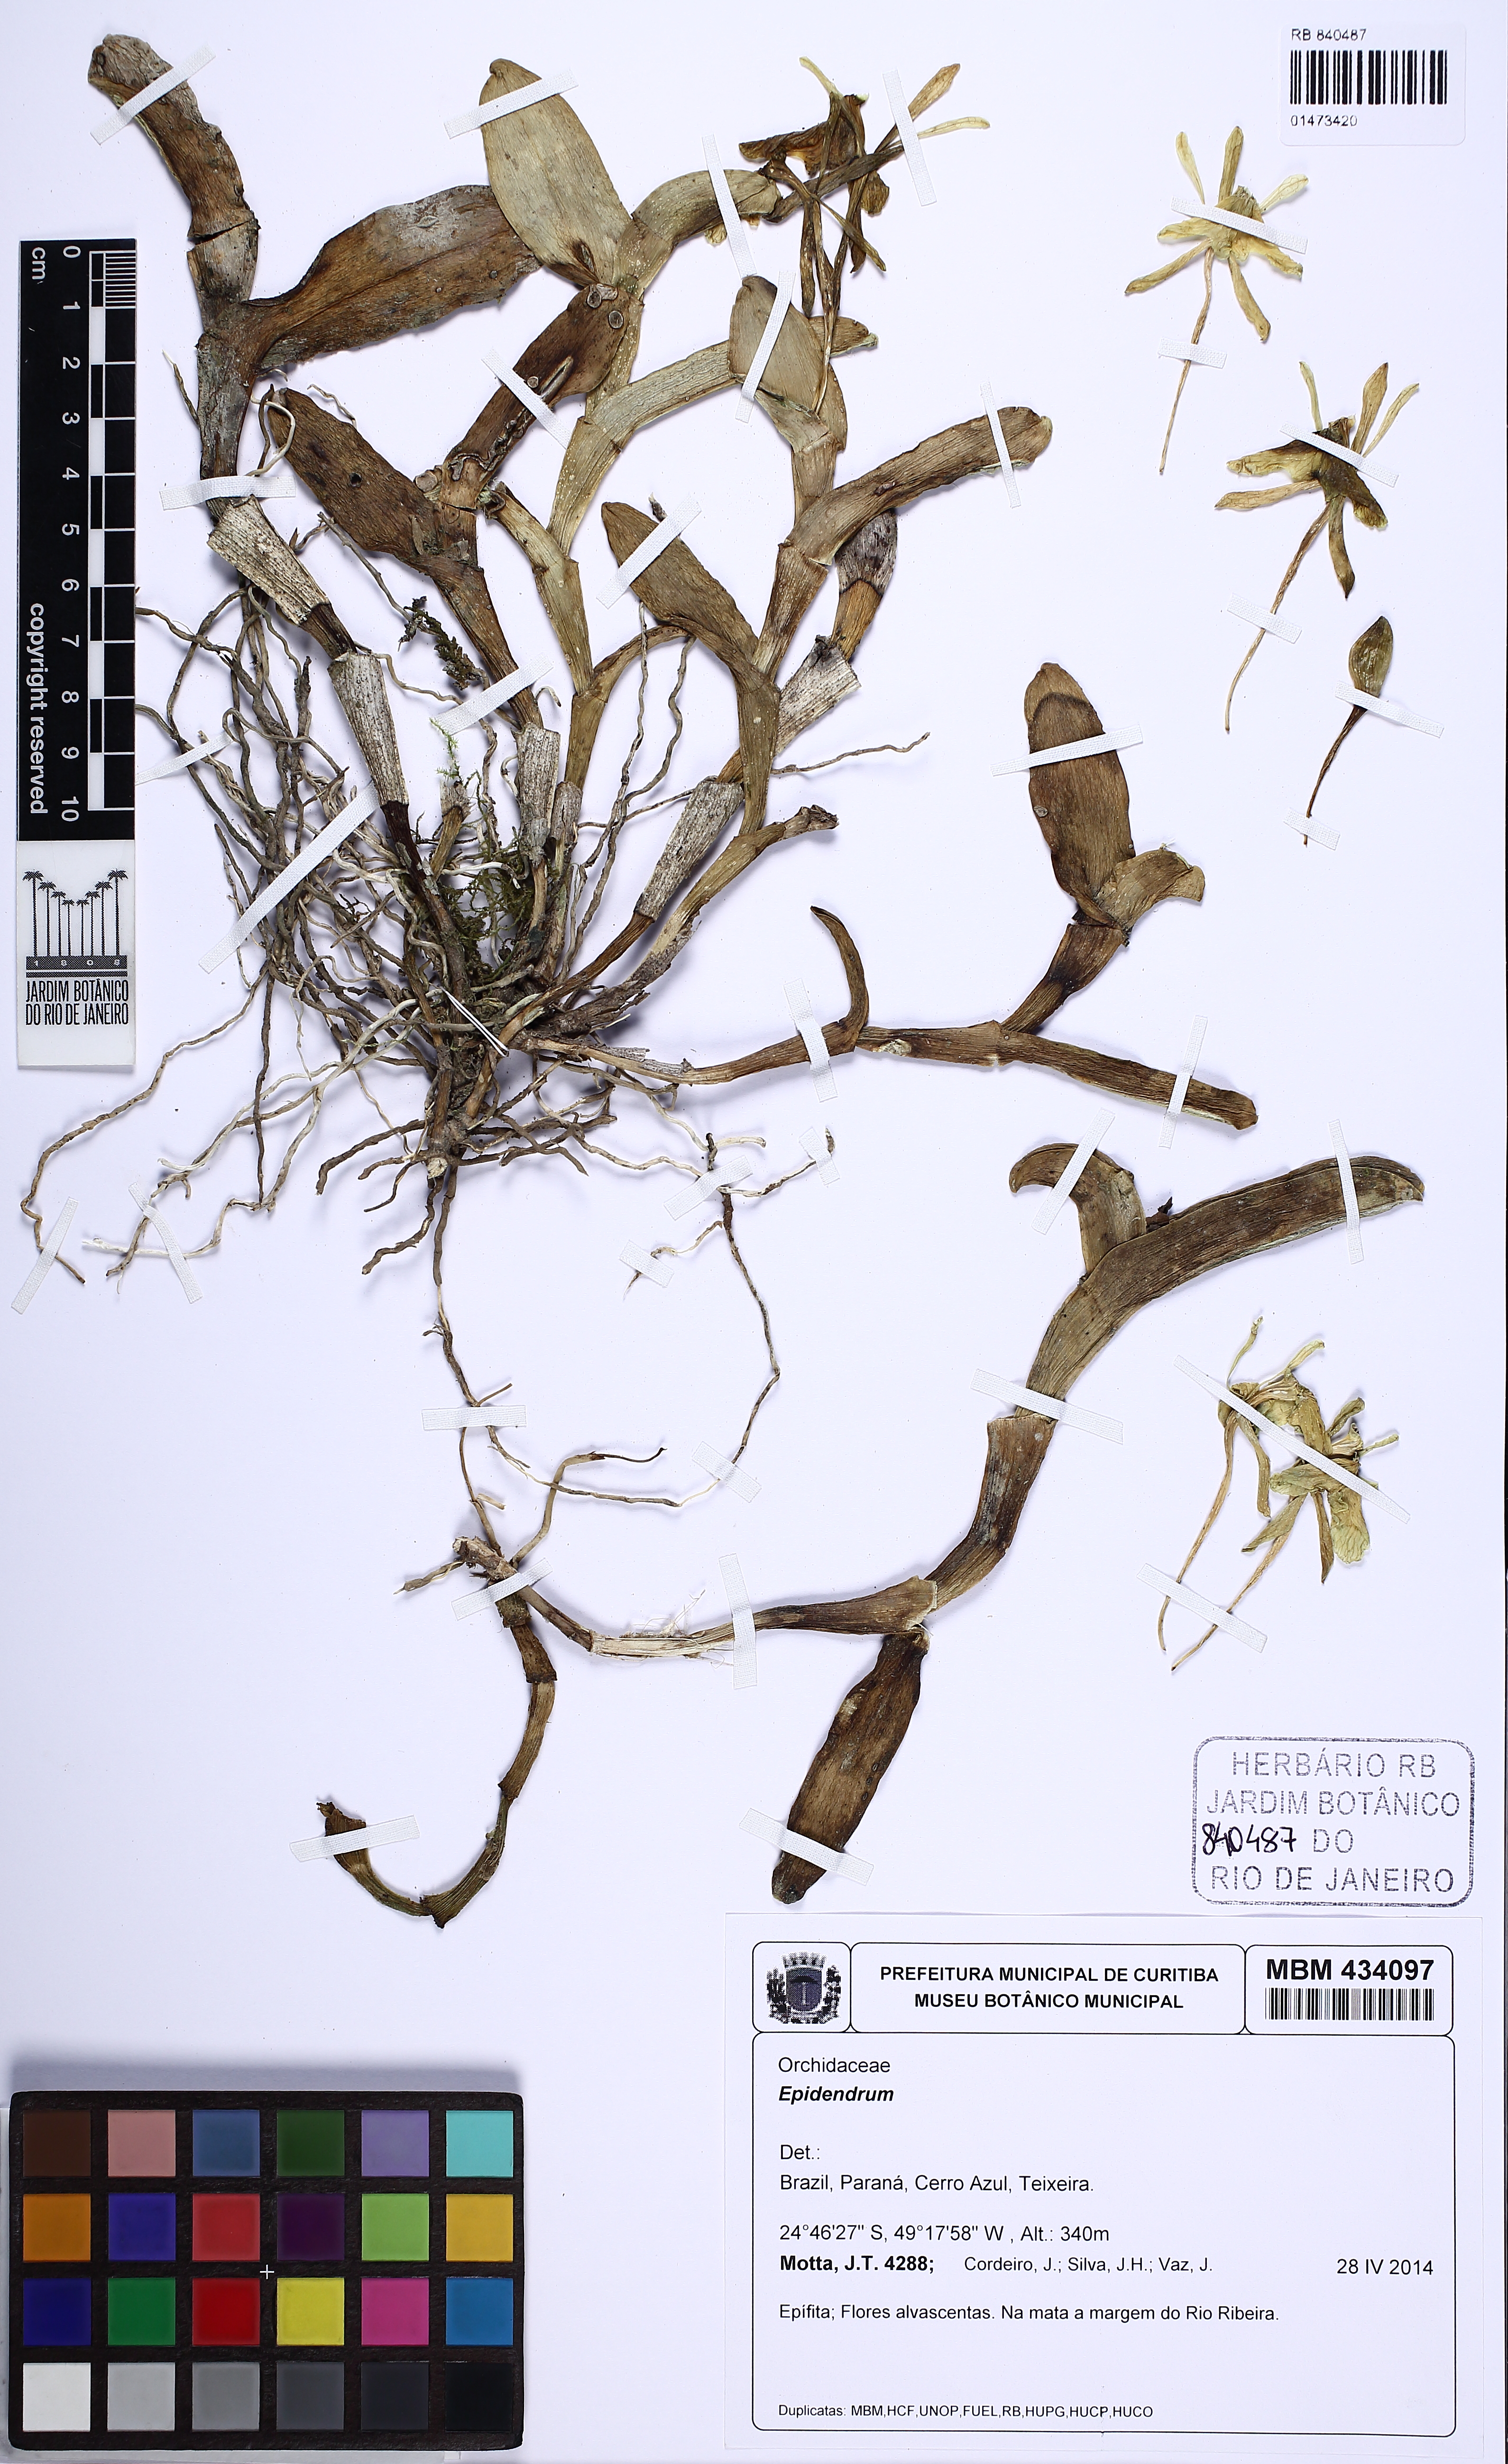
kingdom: Plantae
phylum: Tracheophyta
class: Liliopsida
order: Asparagales
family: Orchidaceae
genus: Epidendrum
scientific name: Epidendrum
